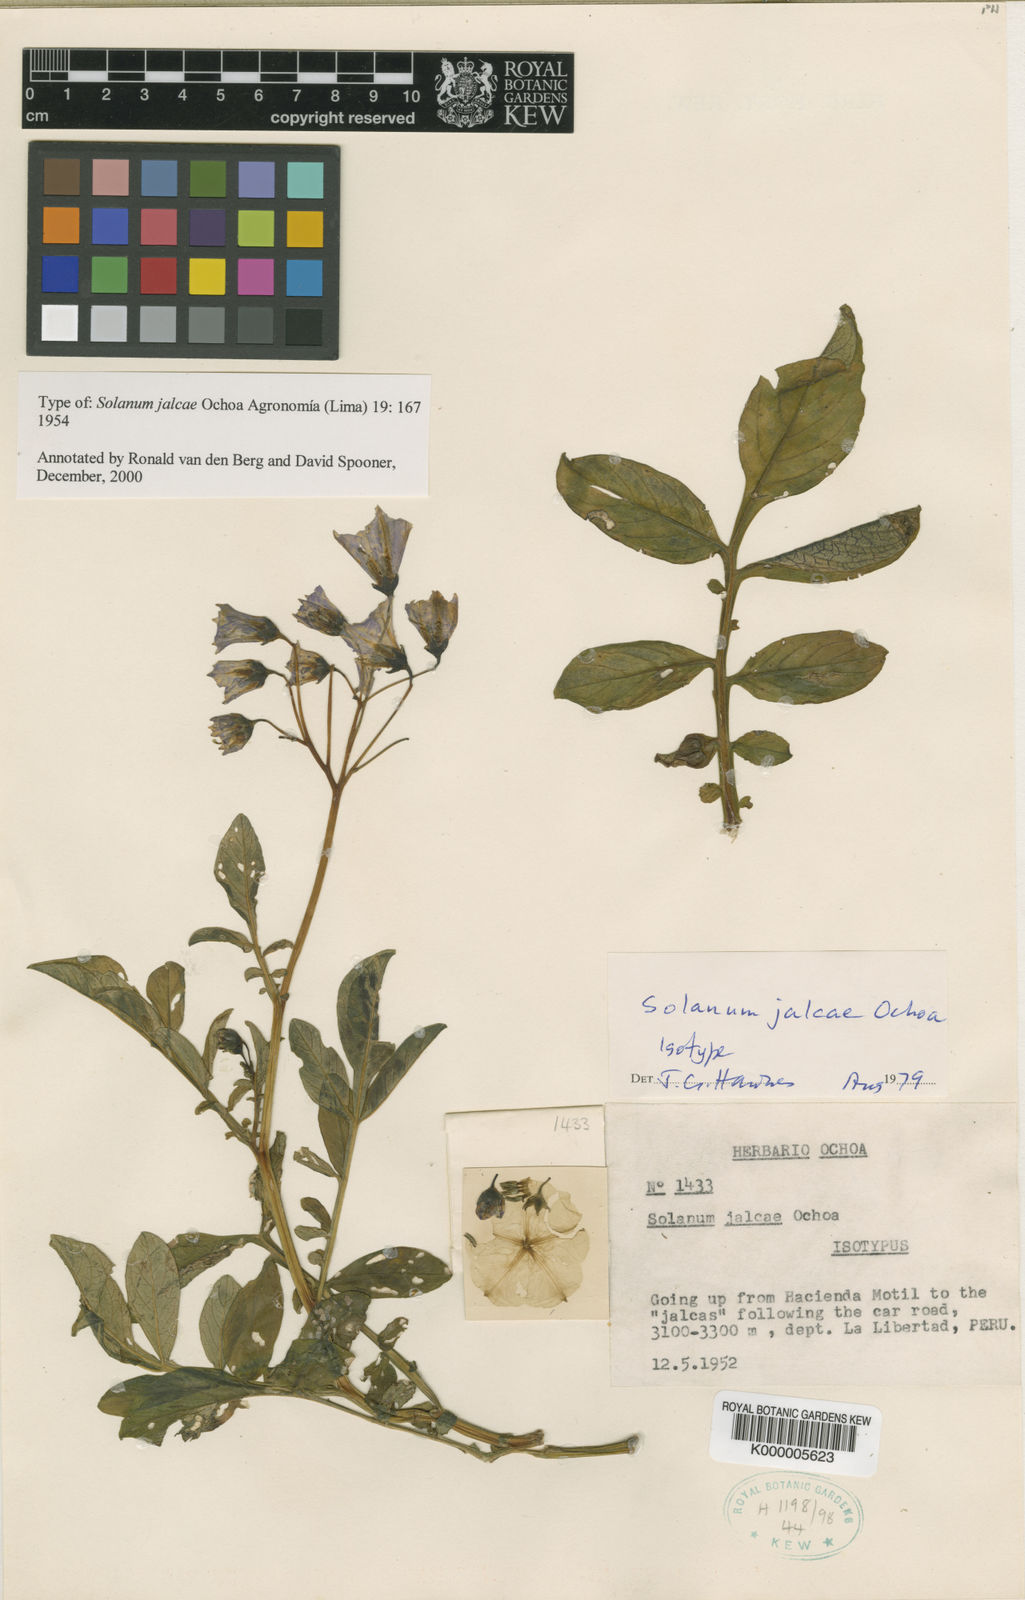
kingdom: Plantae
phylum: Tracheophyta
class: Magnoliopsida
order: Solanales
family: Solanaceae
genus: Solanum
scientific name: Solanum chomatophilum
